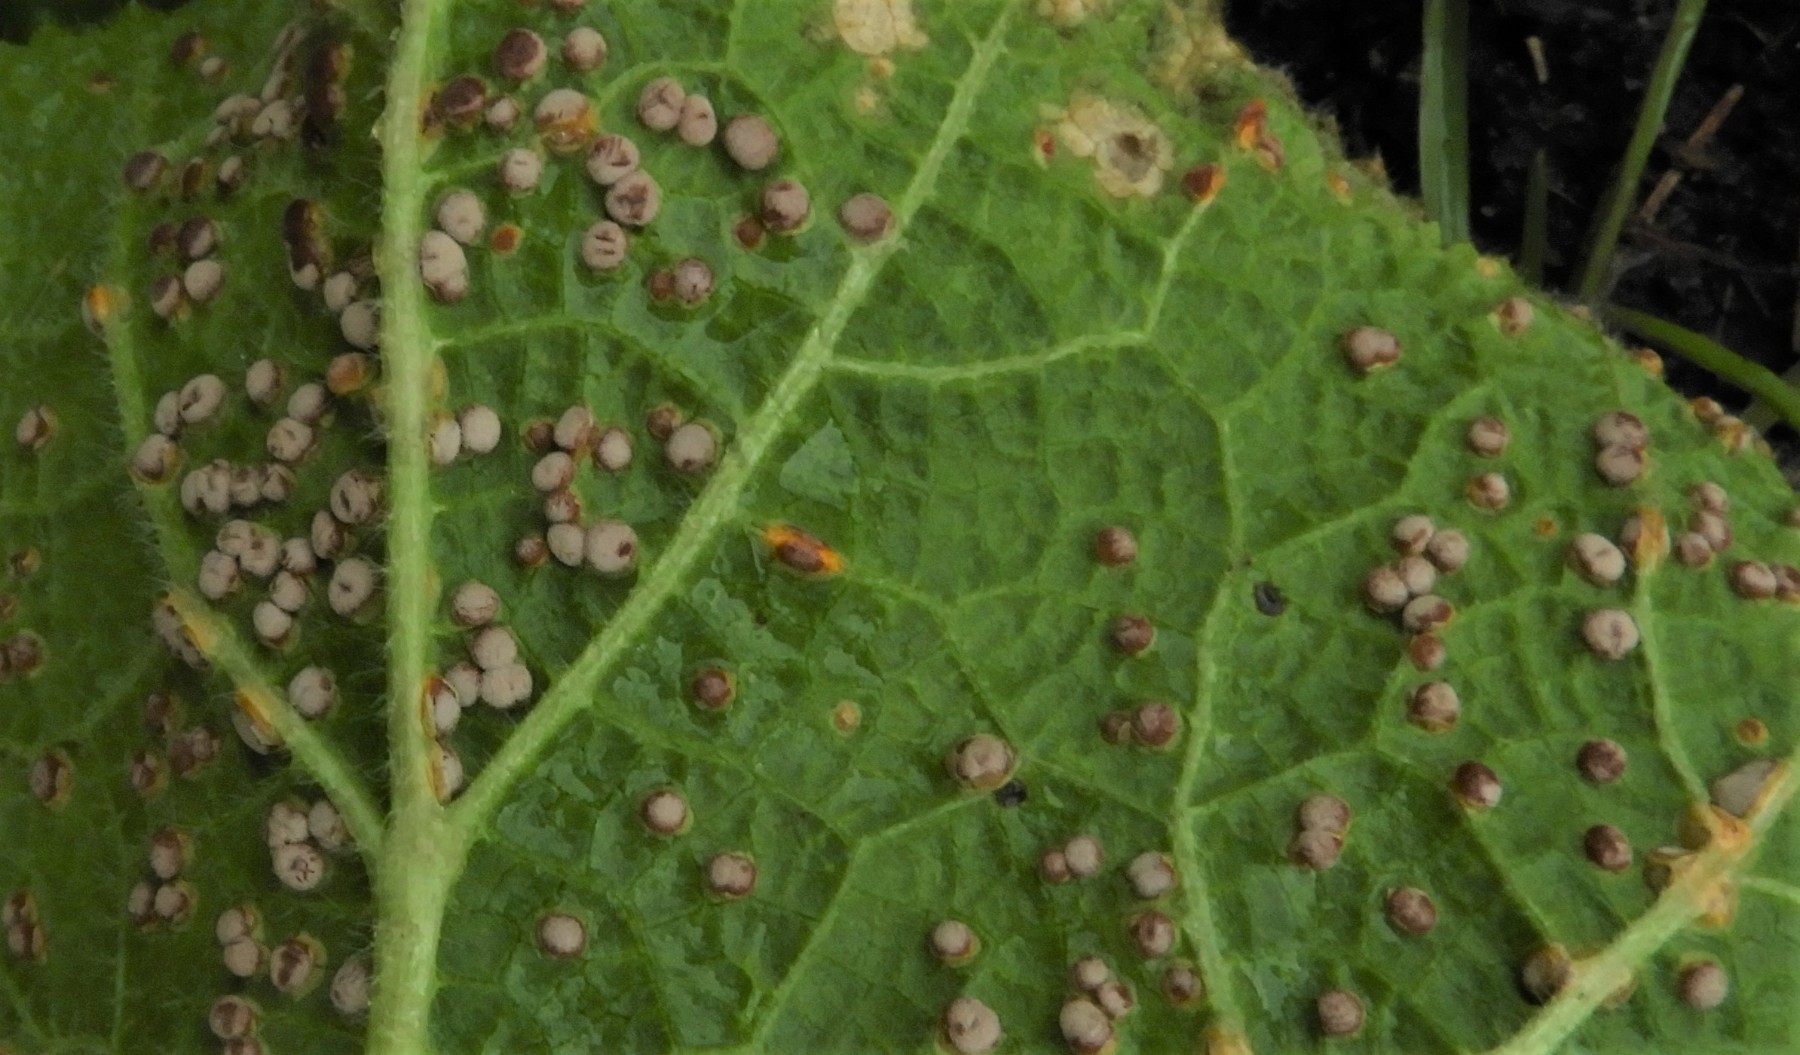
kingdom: Fungi
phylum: Basidiomycota
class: Pucciniomycetes
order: Pucciniales
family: Pucciniaceae
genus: Puccinia
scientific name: Puccinia malvacearum
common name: stokrose-tvecellerust
